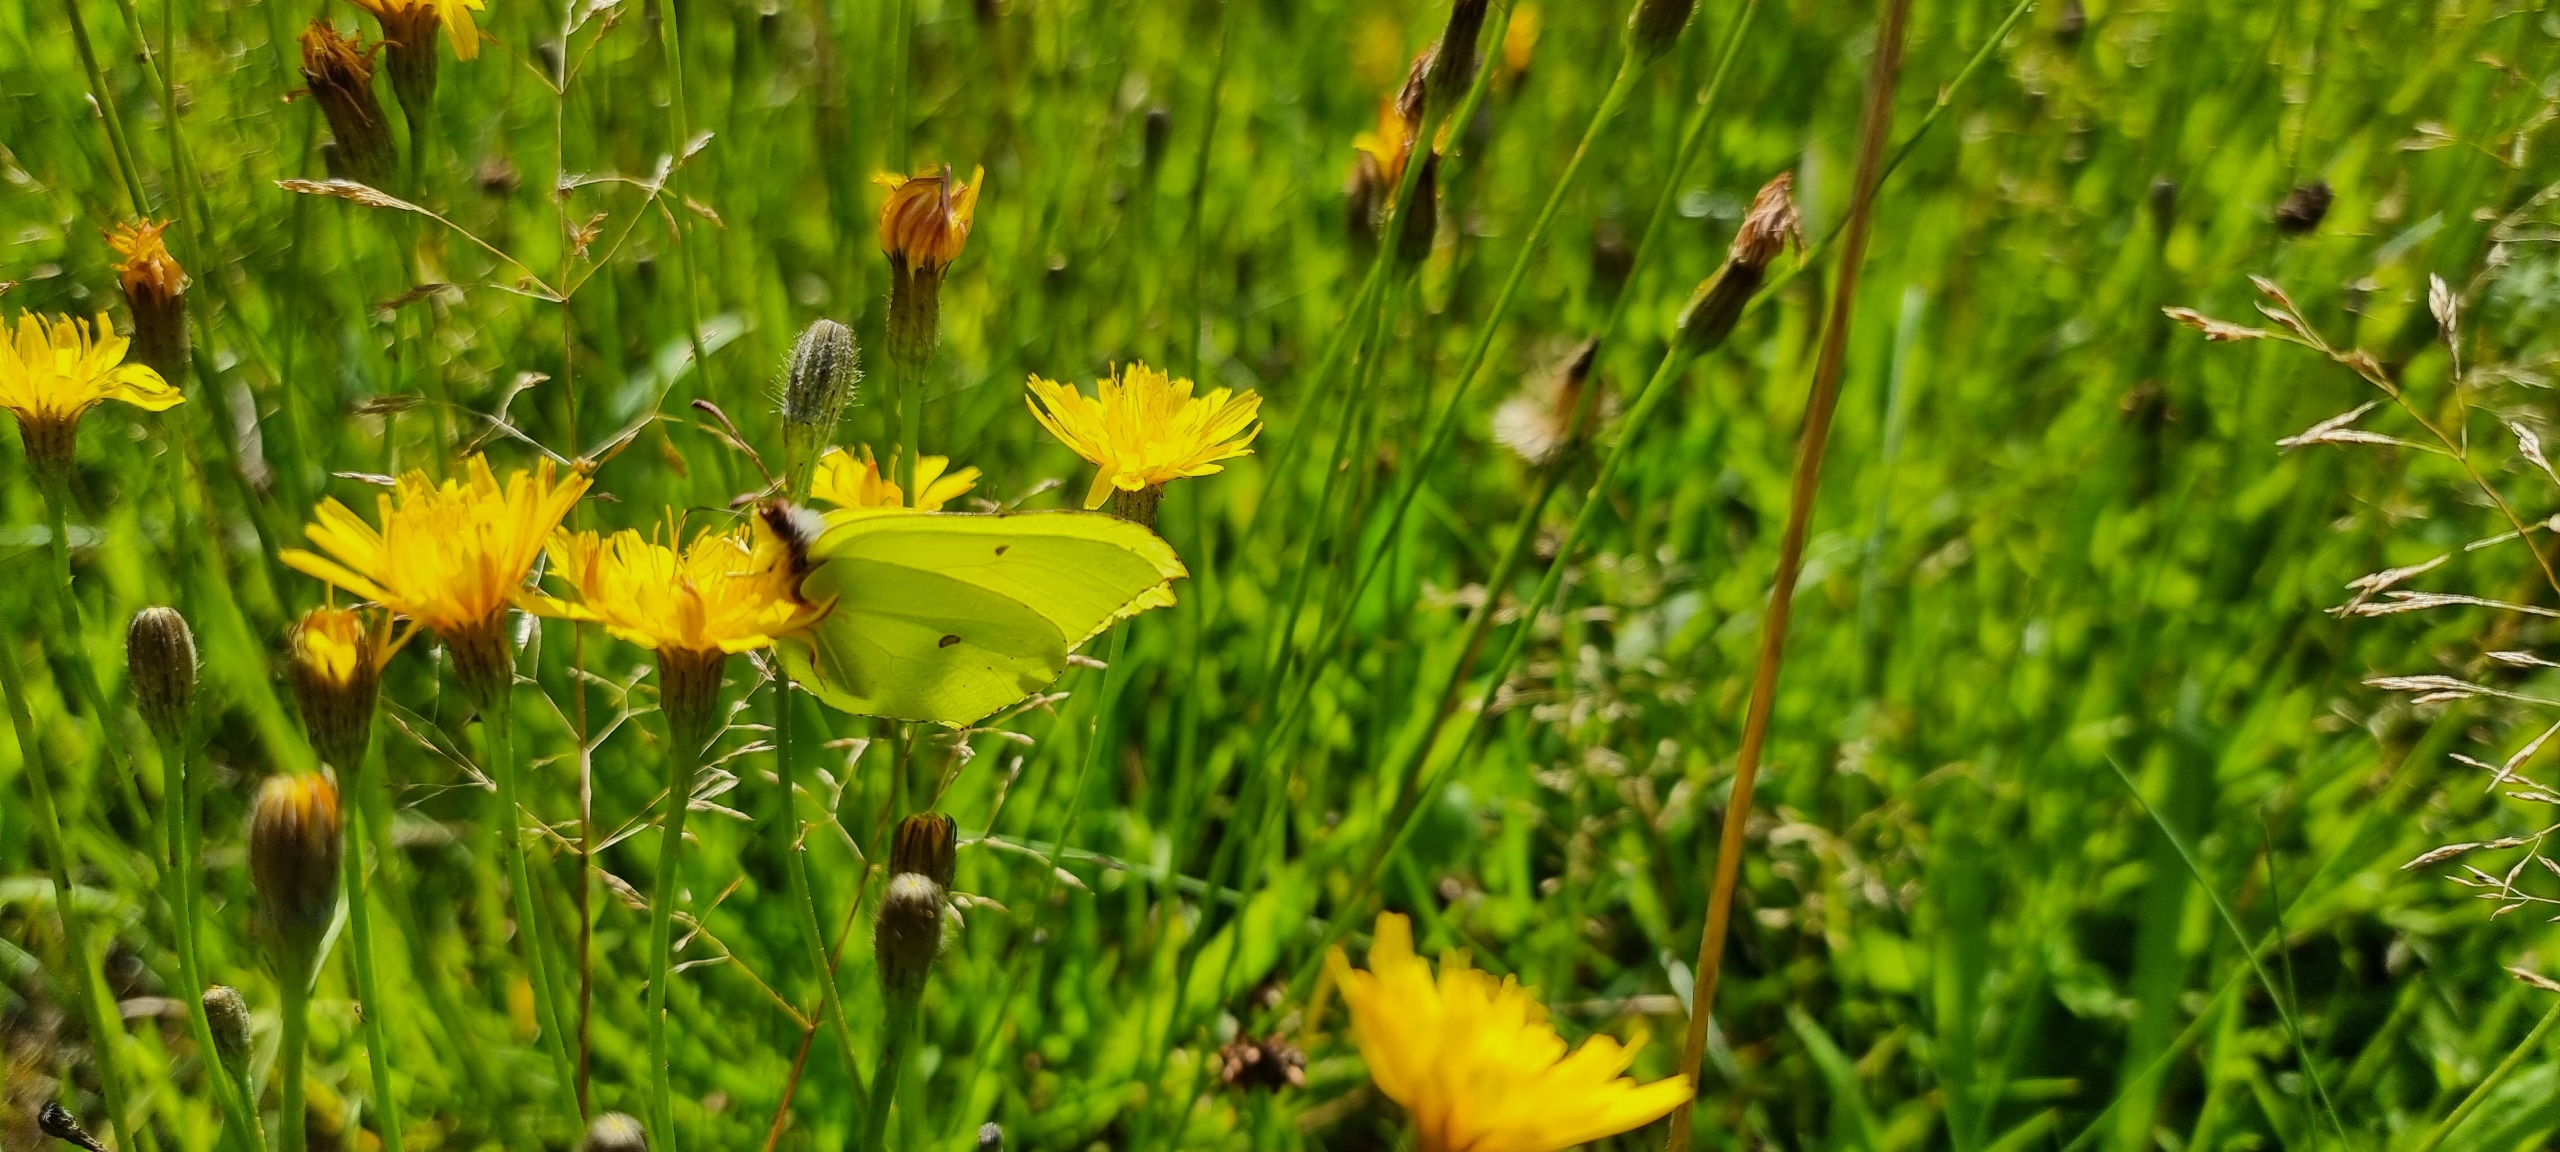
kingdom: Animalia
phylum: Arthropoda
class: Insecta
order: Lepidoptera
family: Pieridae
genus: Gonepteryx
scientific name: Gonepteryx rhamni
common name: Citronsommerfugl
